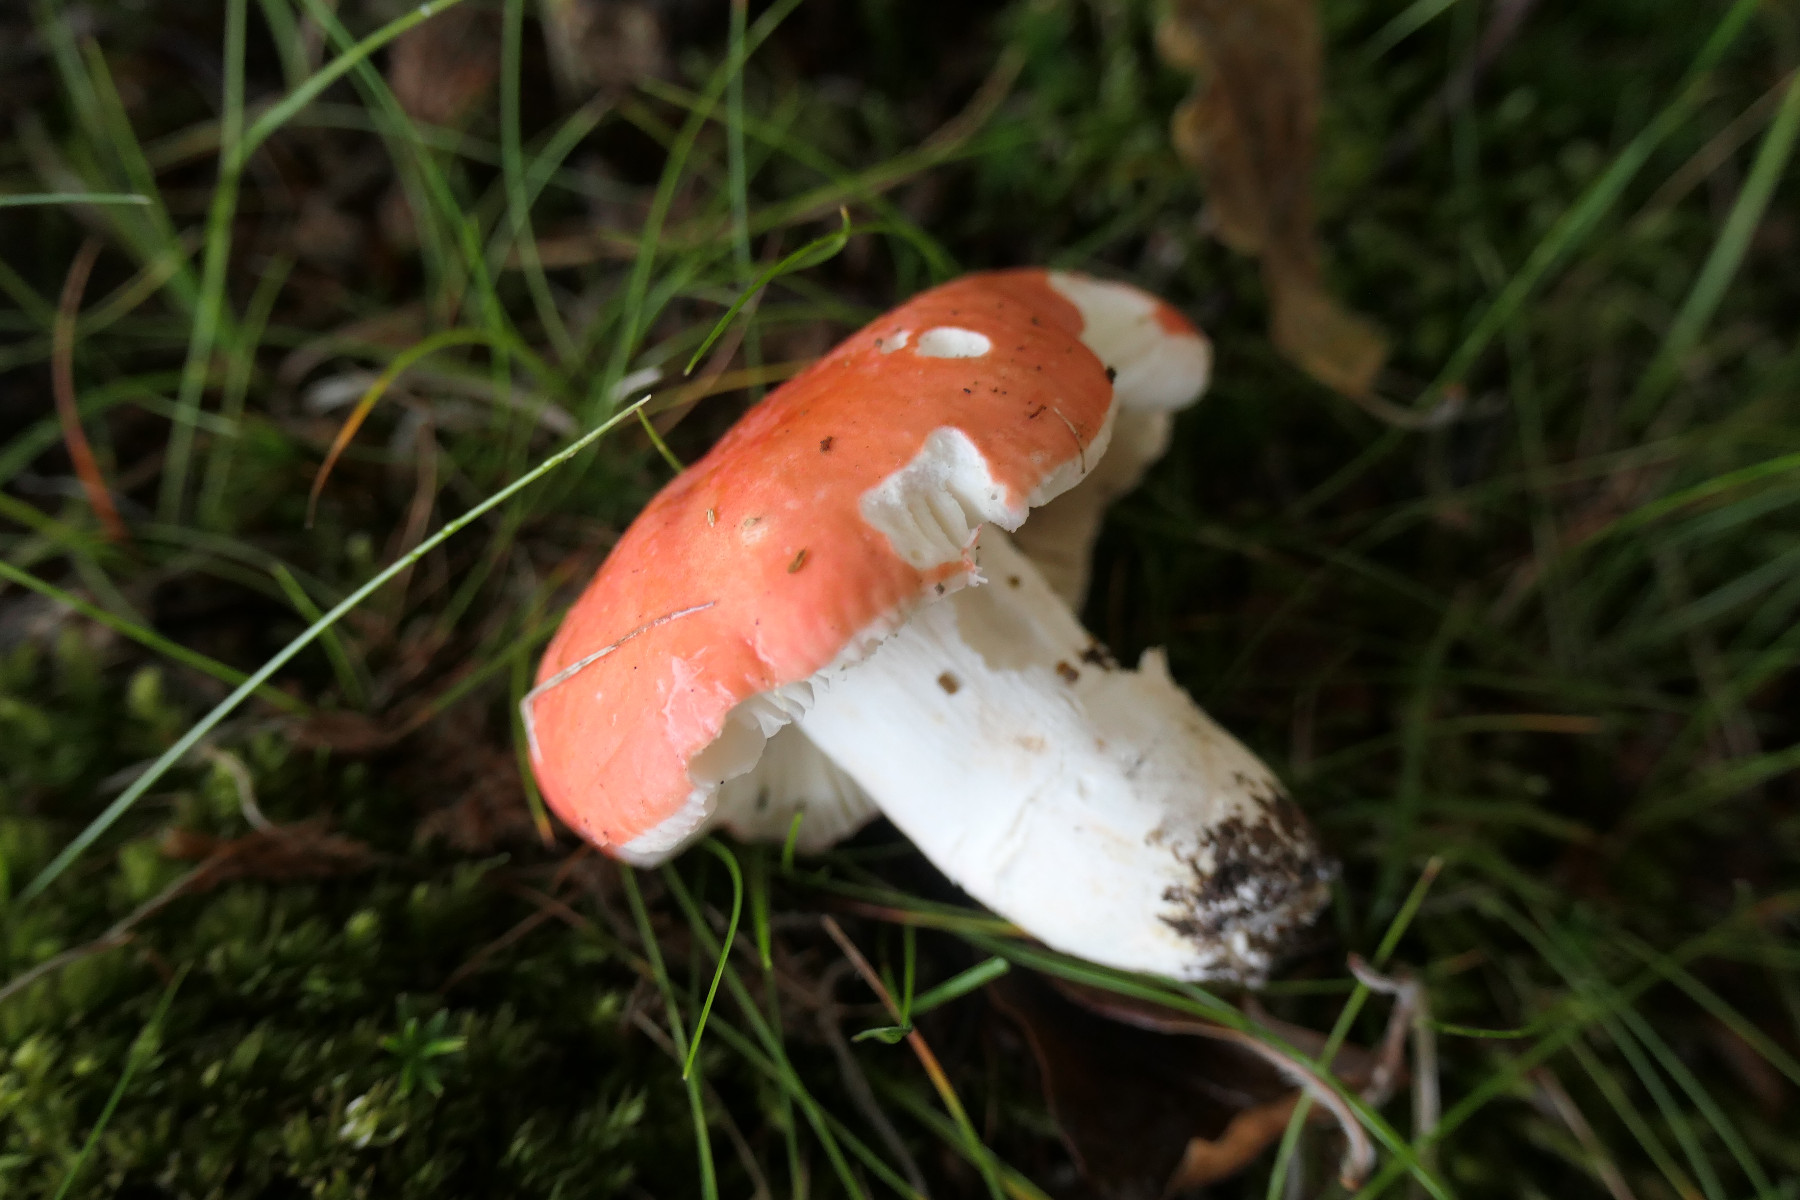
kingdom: Fungi
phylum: Basidiomycota
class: Agaricomycetes
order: Russulales
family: Russulaceae
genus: Russula
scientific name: Russula rosea
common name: fastkødet skørhat
